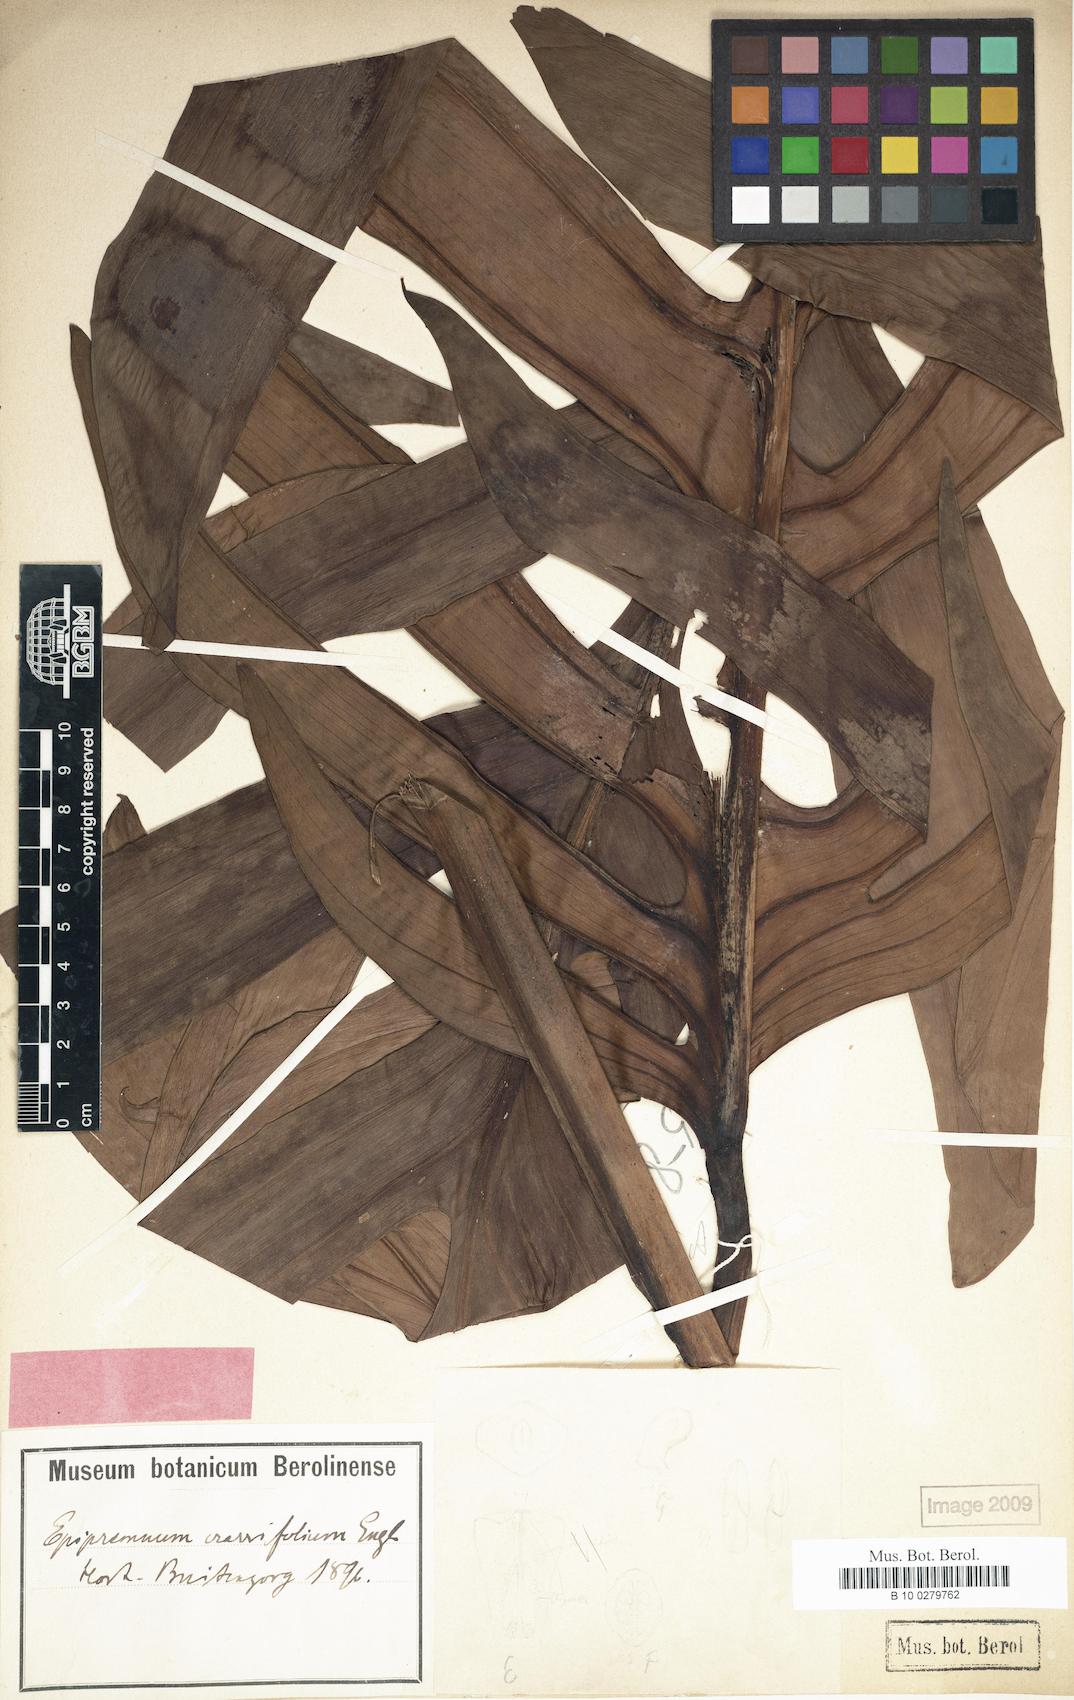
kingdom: Plantae
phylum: Tracheophyta
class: Liliopsida
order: Alismatales
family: Araceae
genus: Epipremnum
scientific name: Epipremnum pinnatum
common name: Centipede tongavine
